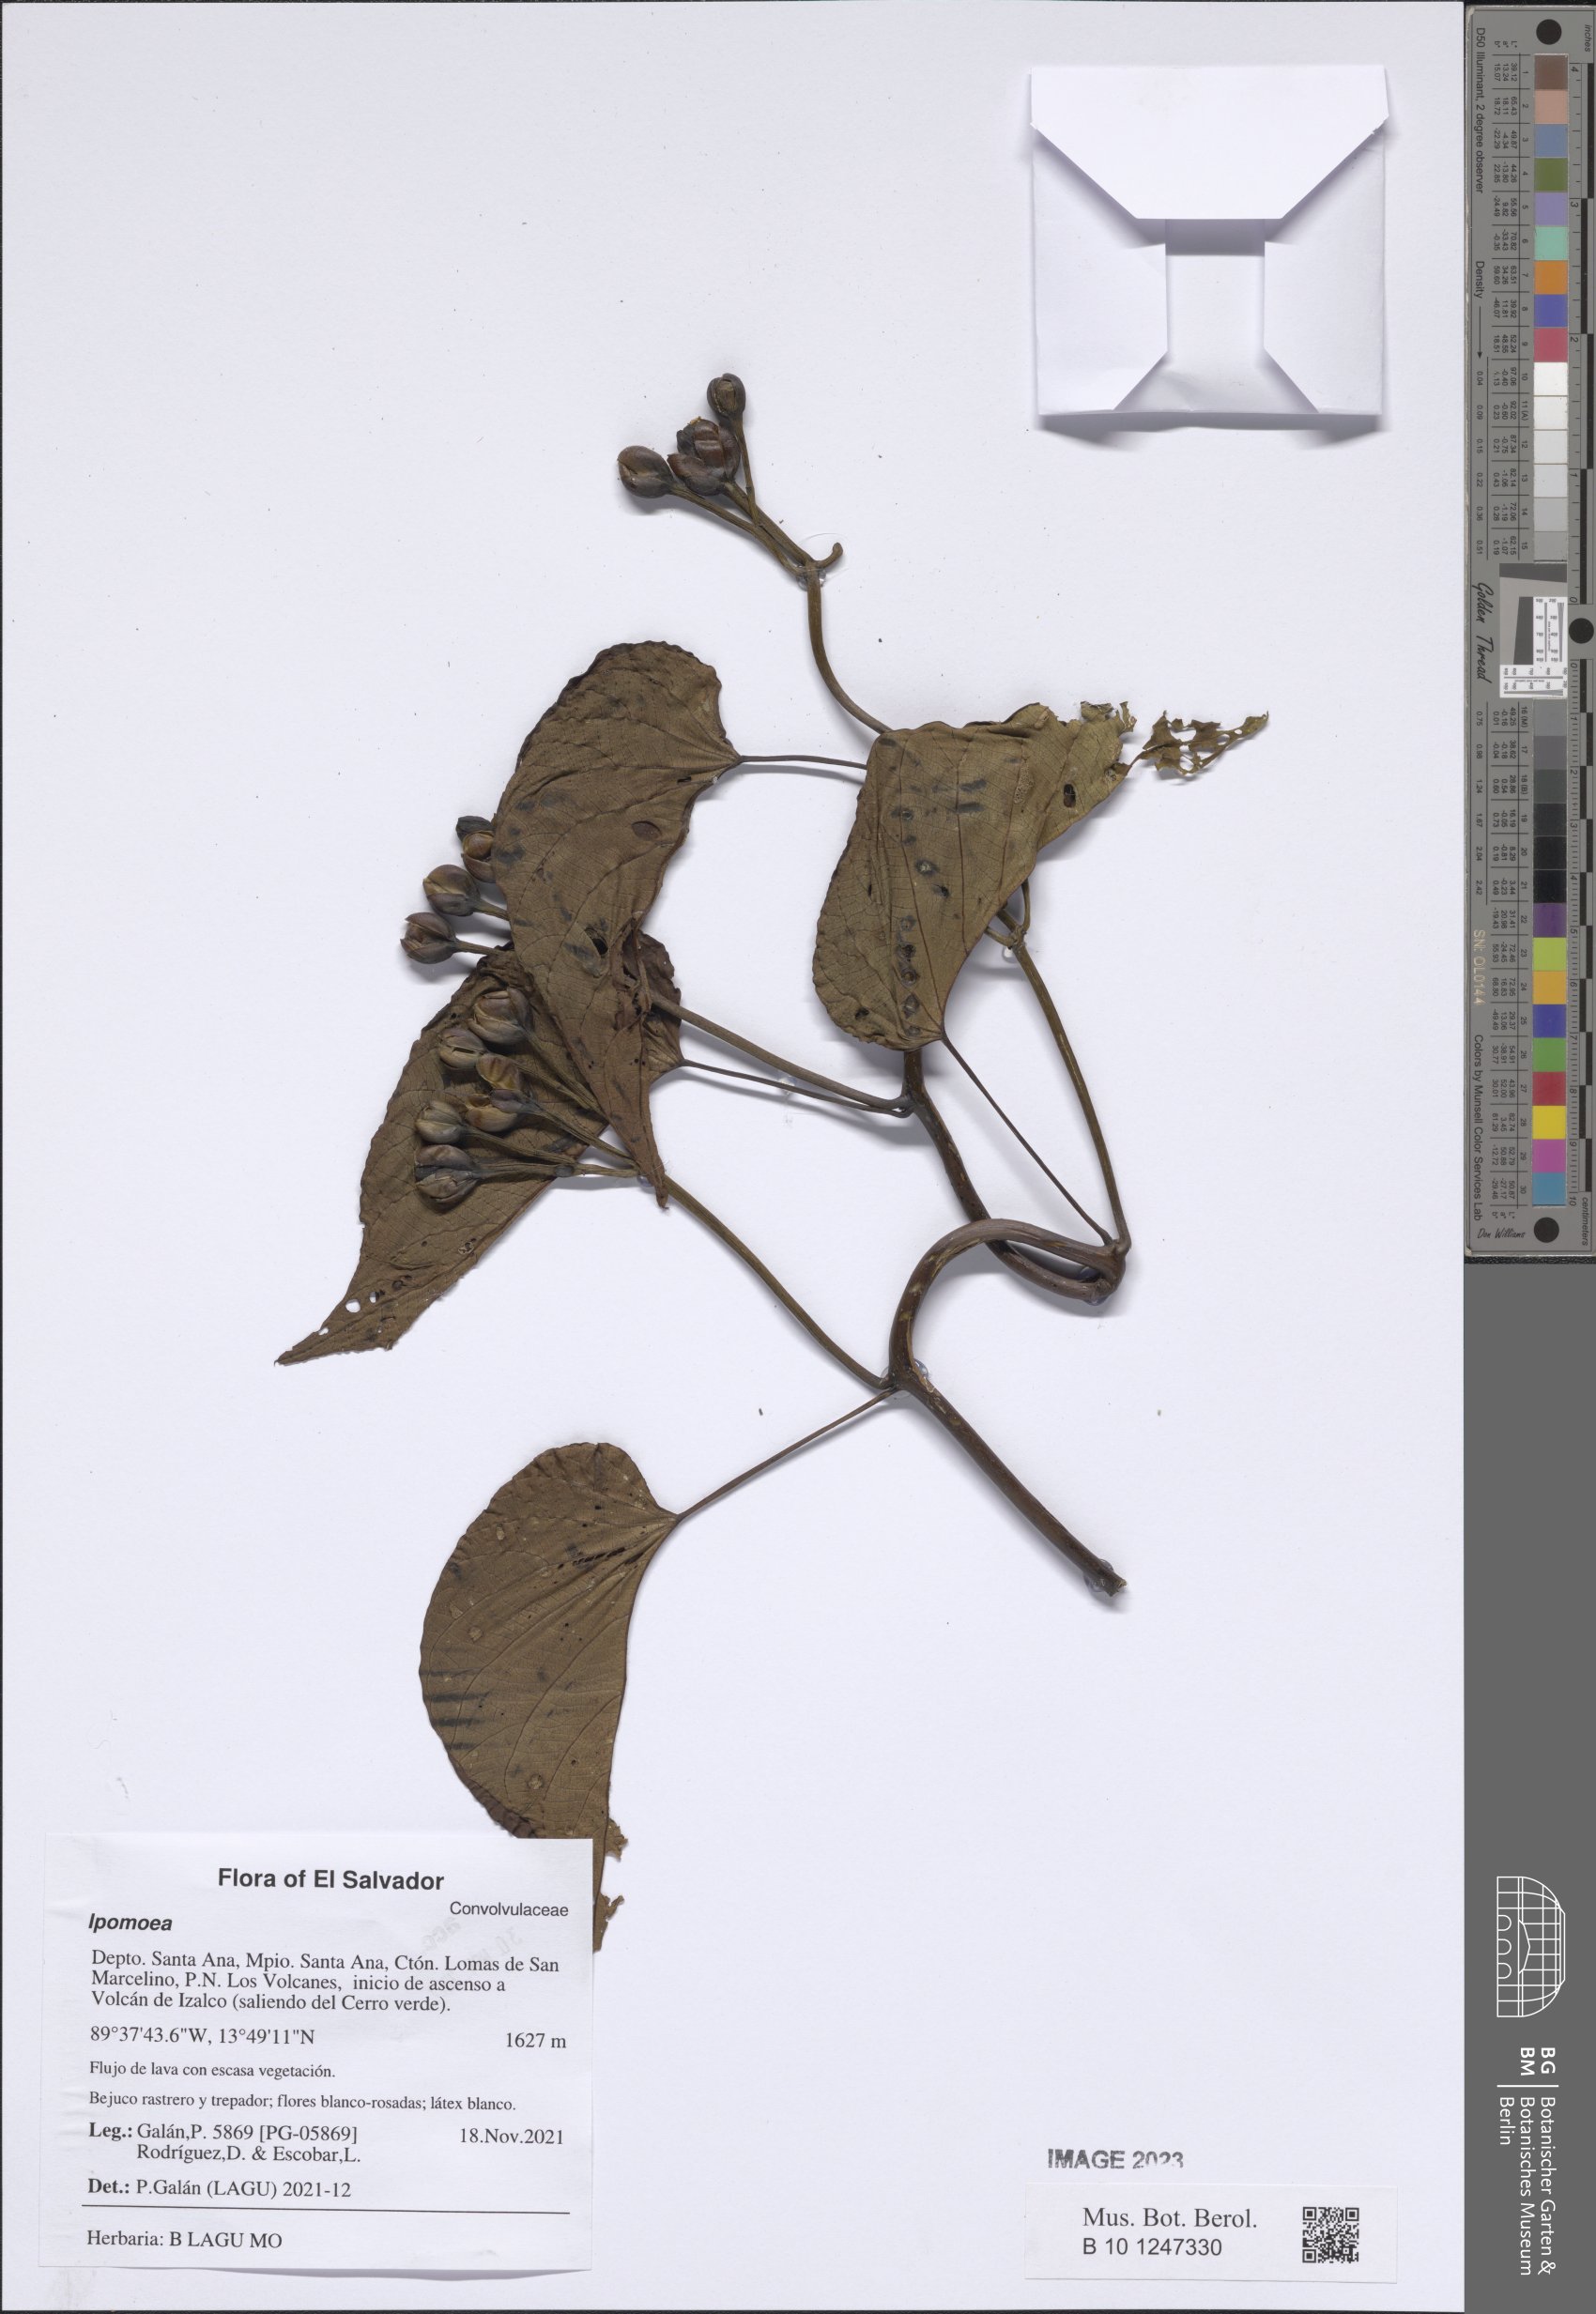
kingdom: Plantae
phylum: Tracheophyta
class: Magnoliopsida
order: Solanales
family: Convolvulaceae
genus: Ipomoea
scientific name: Ipomoea
